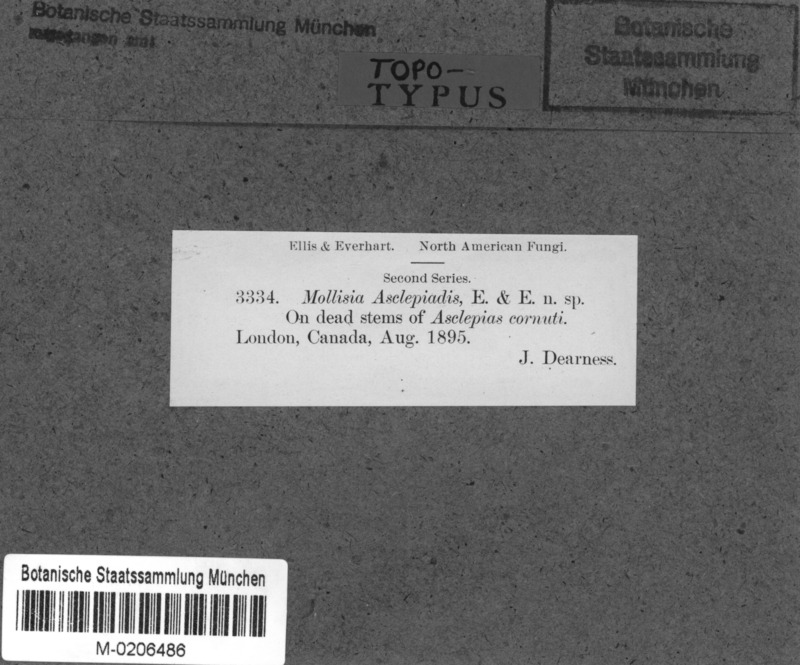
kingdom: Fungi
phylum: Ascomycota
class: Leotiomycetes
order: Helotiales
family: Mollisiaceae
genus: Mollisia
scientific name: Mollisia
